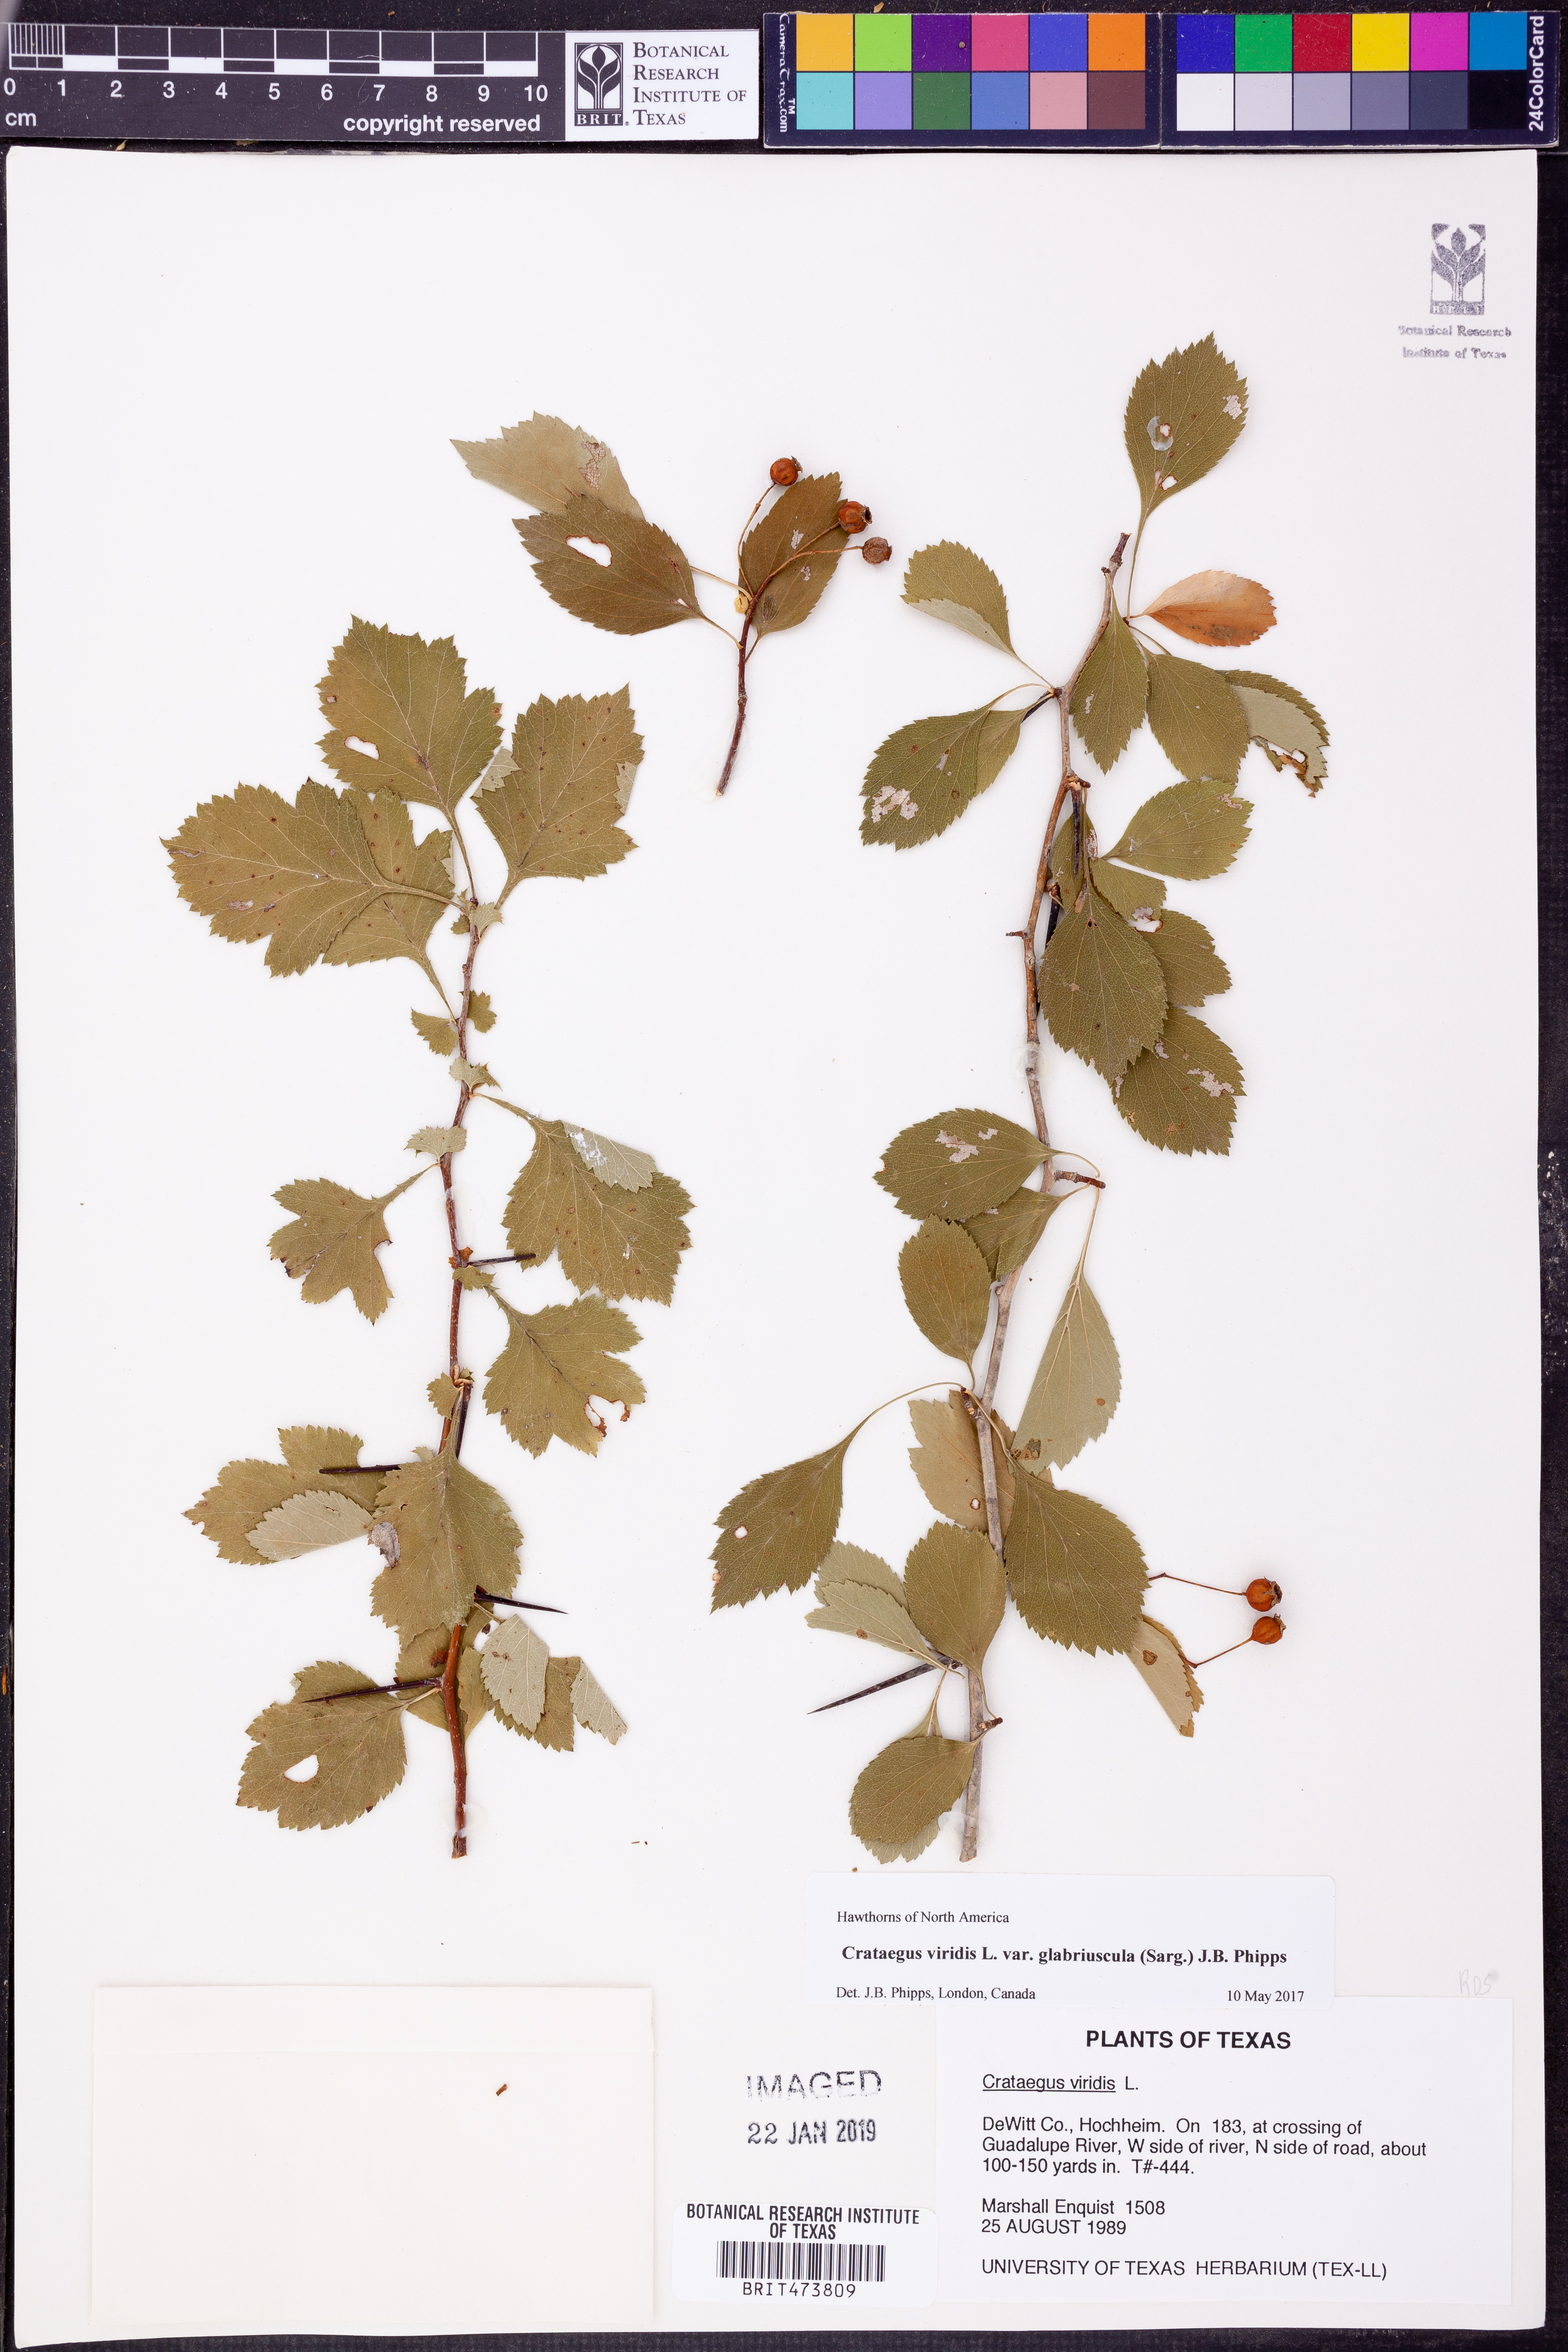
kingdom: Plantae
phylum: Tracheophyta
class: Magnoliopsida
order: Rosales
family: Rosaceae
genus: Crataegus
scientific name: Crataegus viridis
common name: Southernthorn
